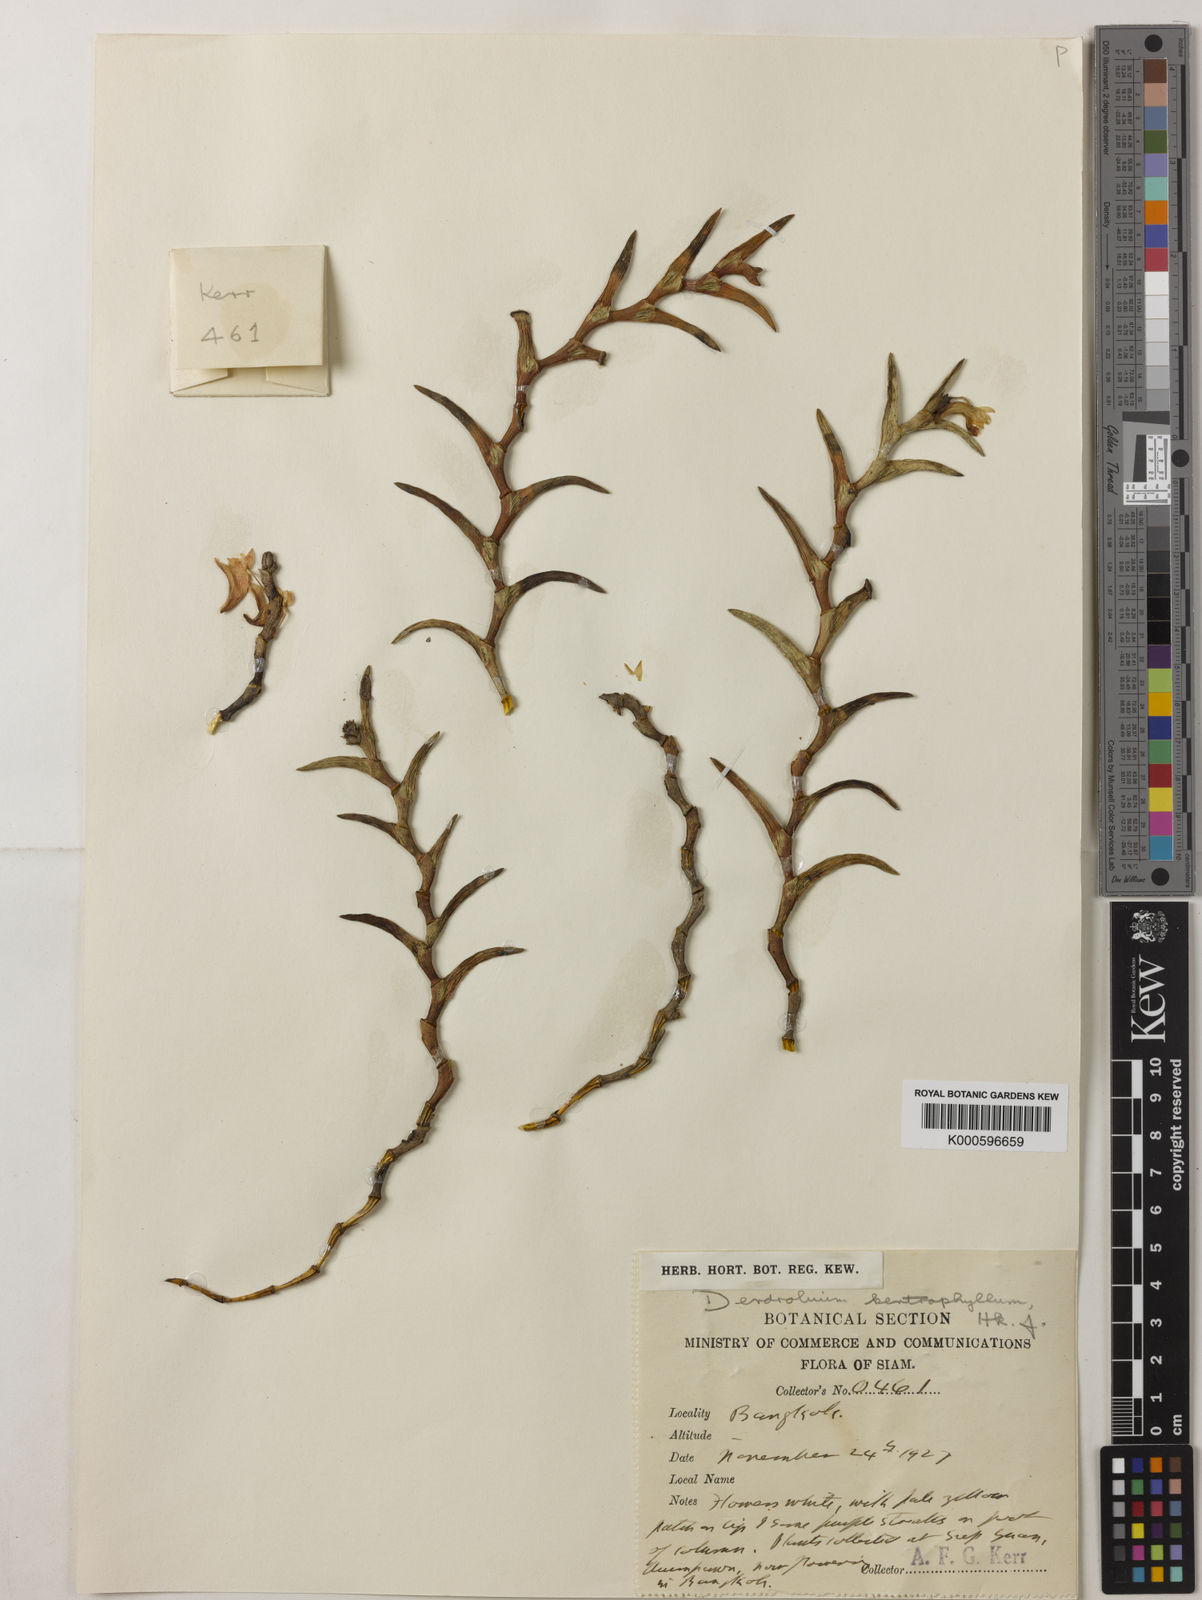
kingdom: Plantae
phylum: Tracheophyta
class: Liliopsida
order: Asparagales
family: Orchidaceae
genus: Dendrobium
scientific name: Dendrobium kentrophyllum
